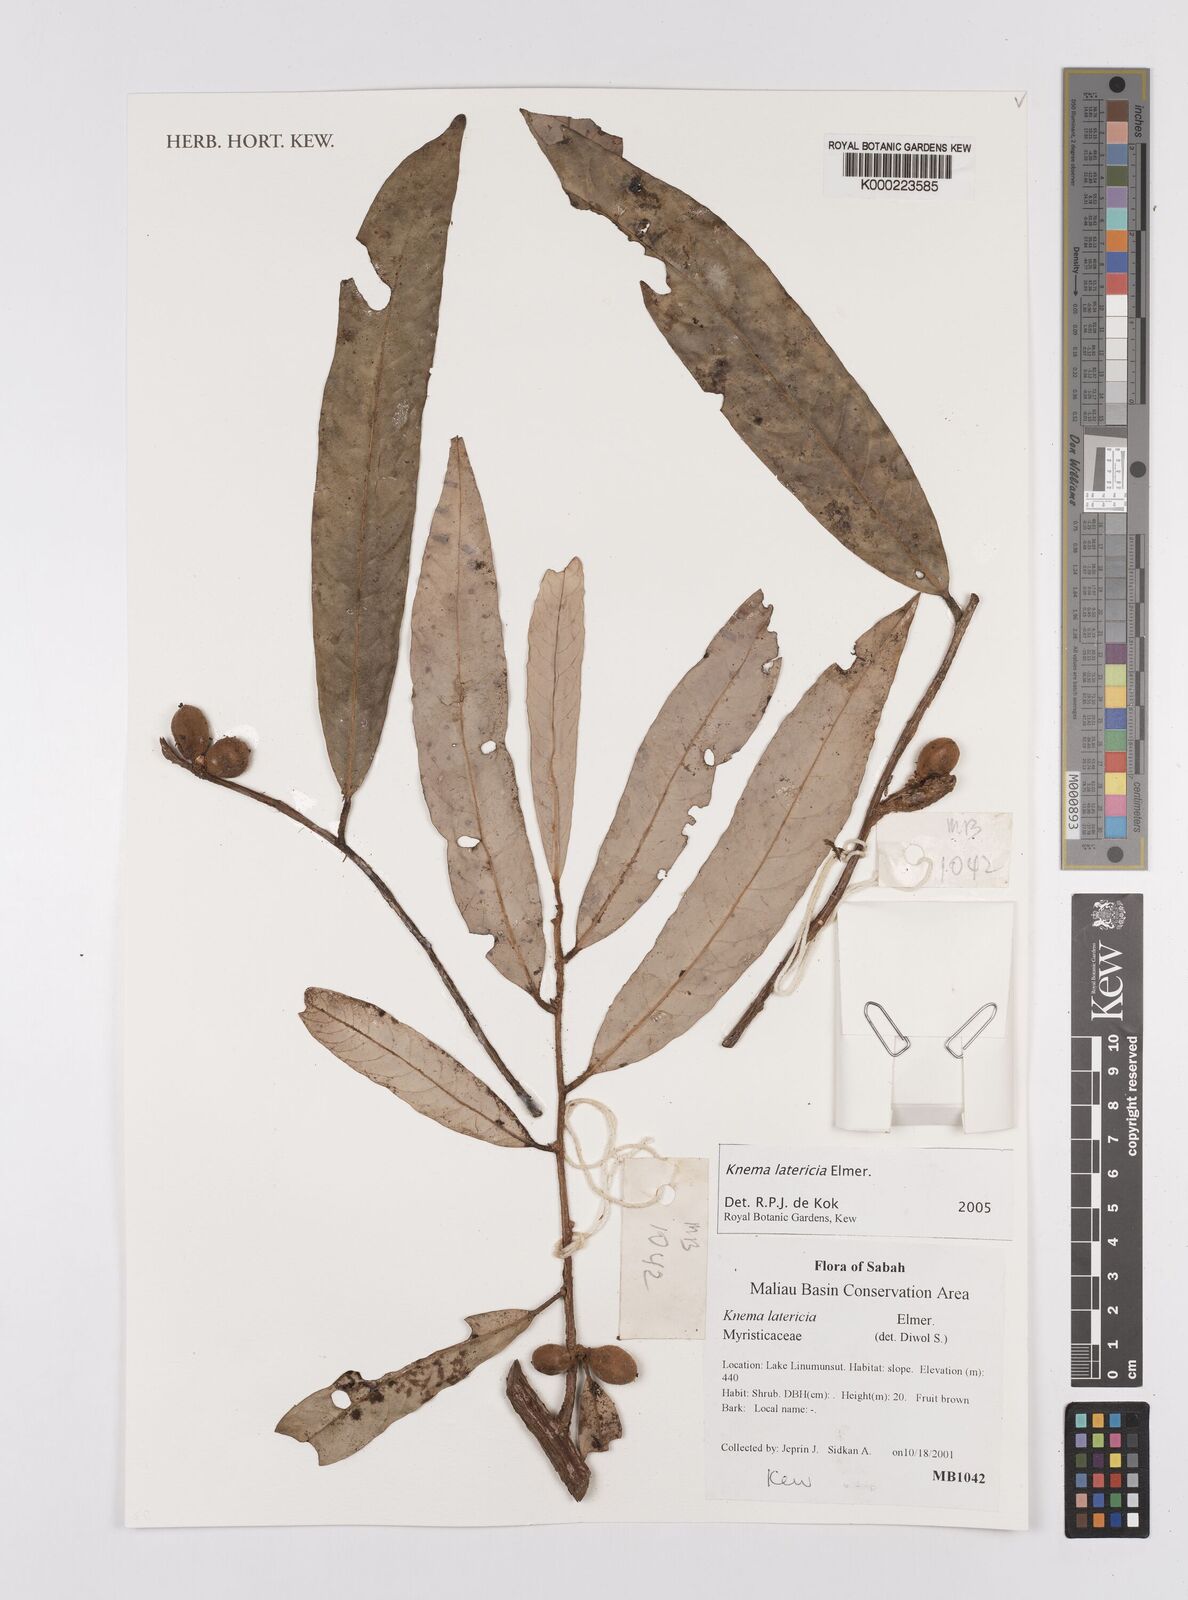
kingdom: Plantae
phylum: Tracheophyta
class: Magnoliopsida
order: Magnoliales
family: Myristicaceae
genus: Knema
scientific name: Knema latericia
